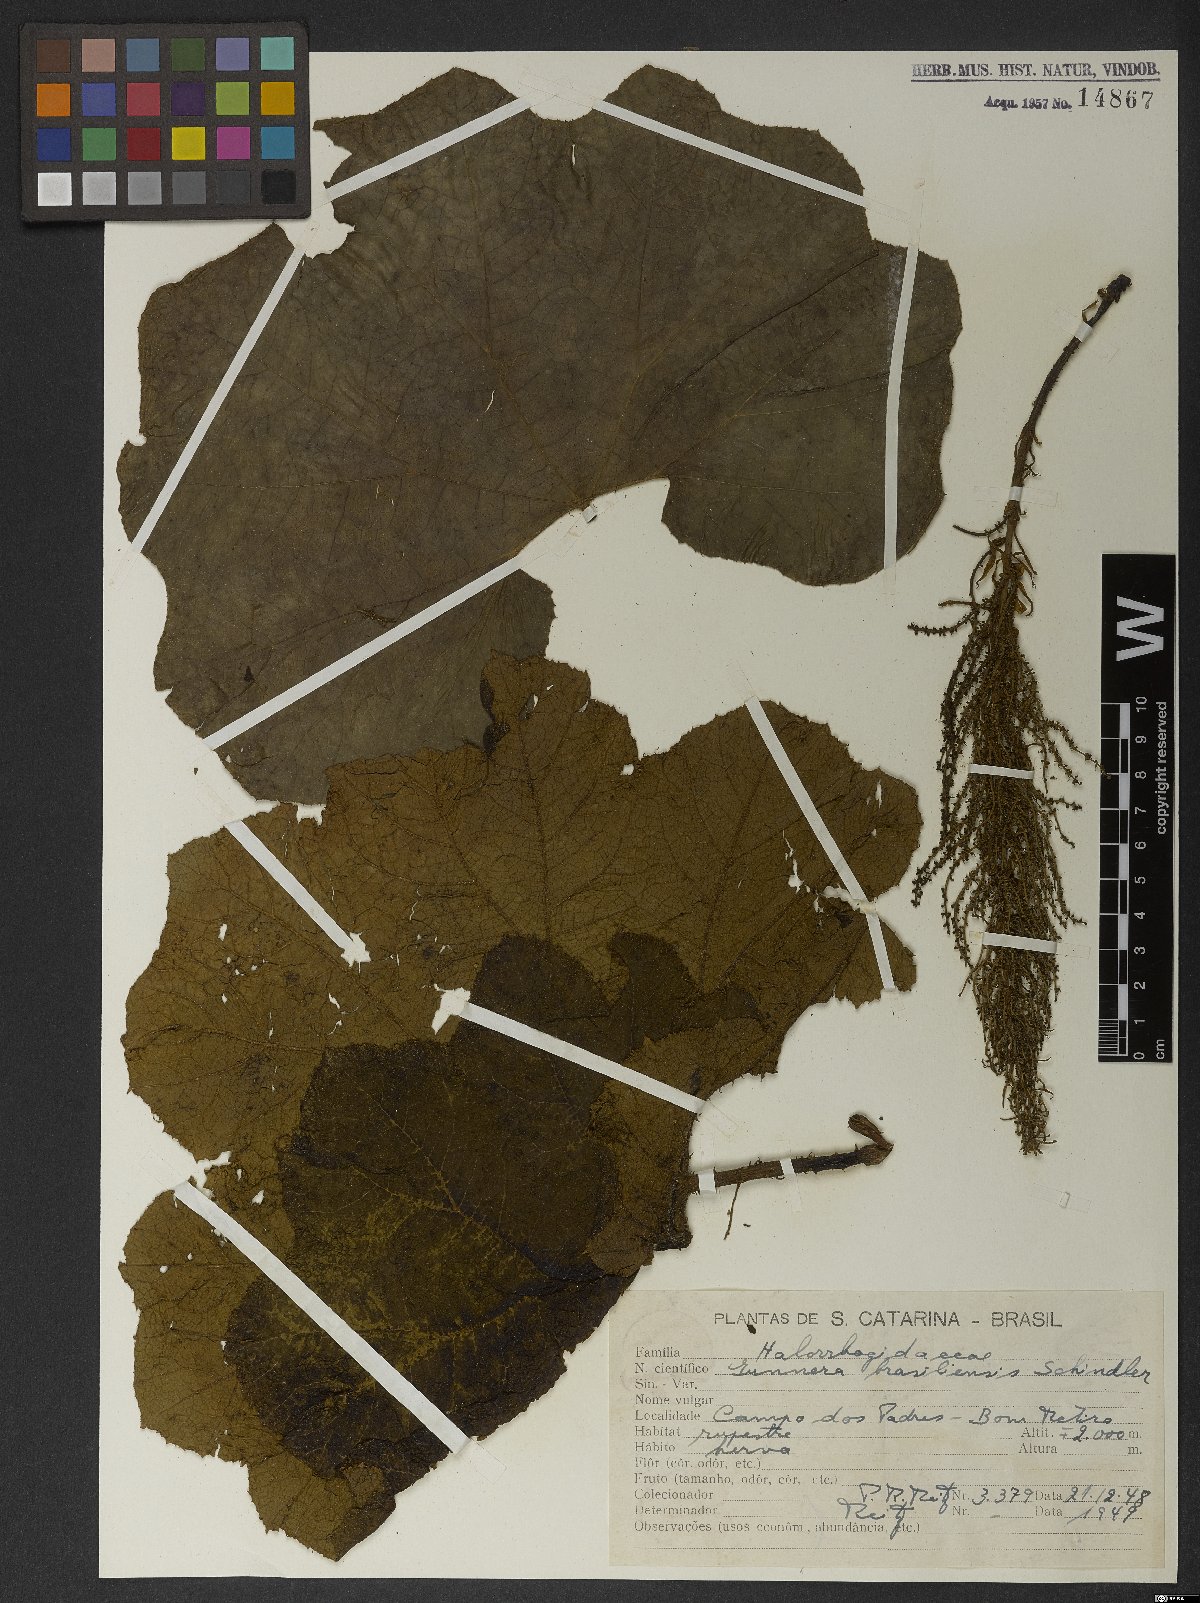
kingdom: Plantae
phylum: Tracheophyta
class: Magnoliopsida
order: Gunnerales
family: Gunneraceae
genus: Gunnera
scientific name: Gunnera manicata
